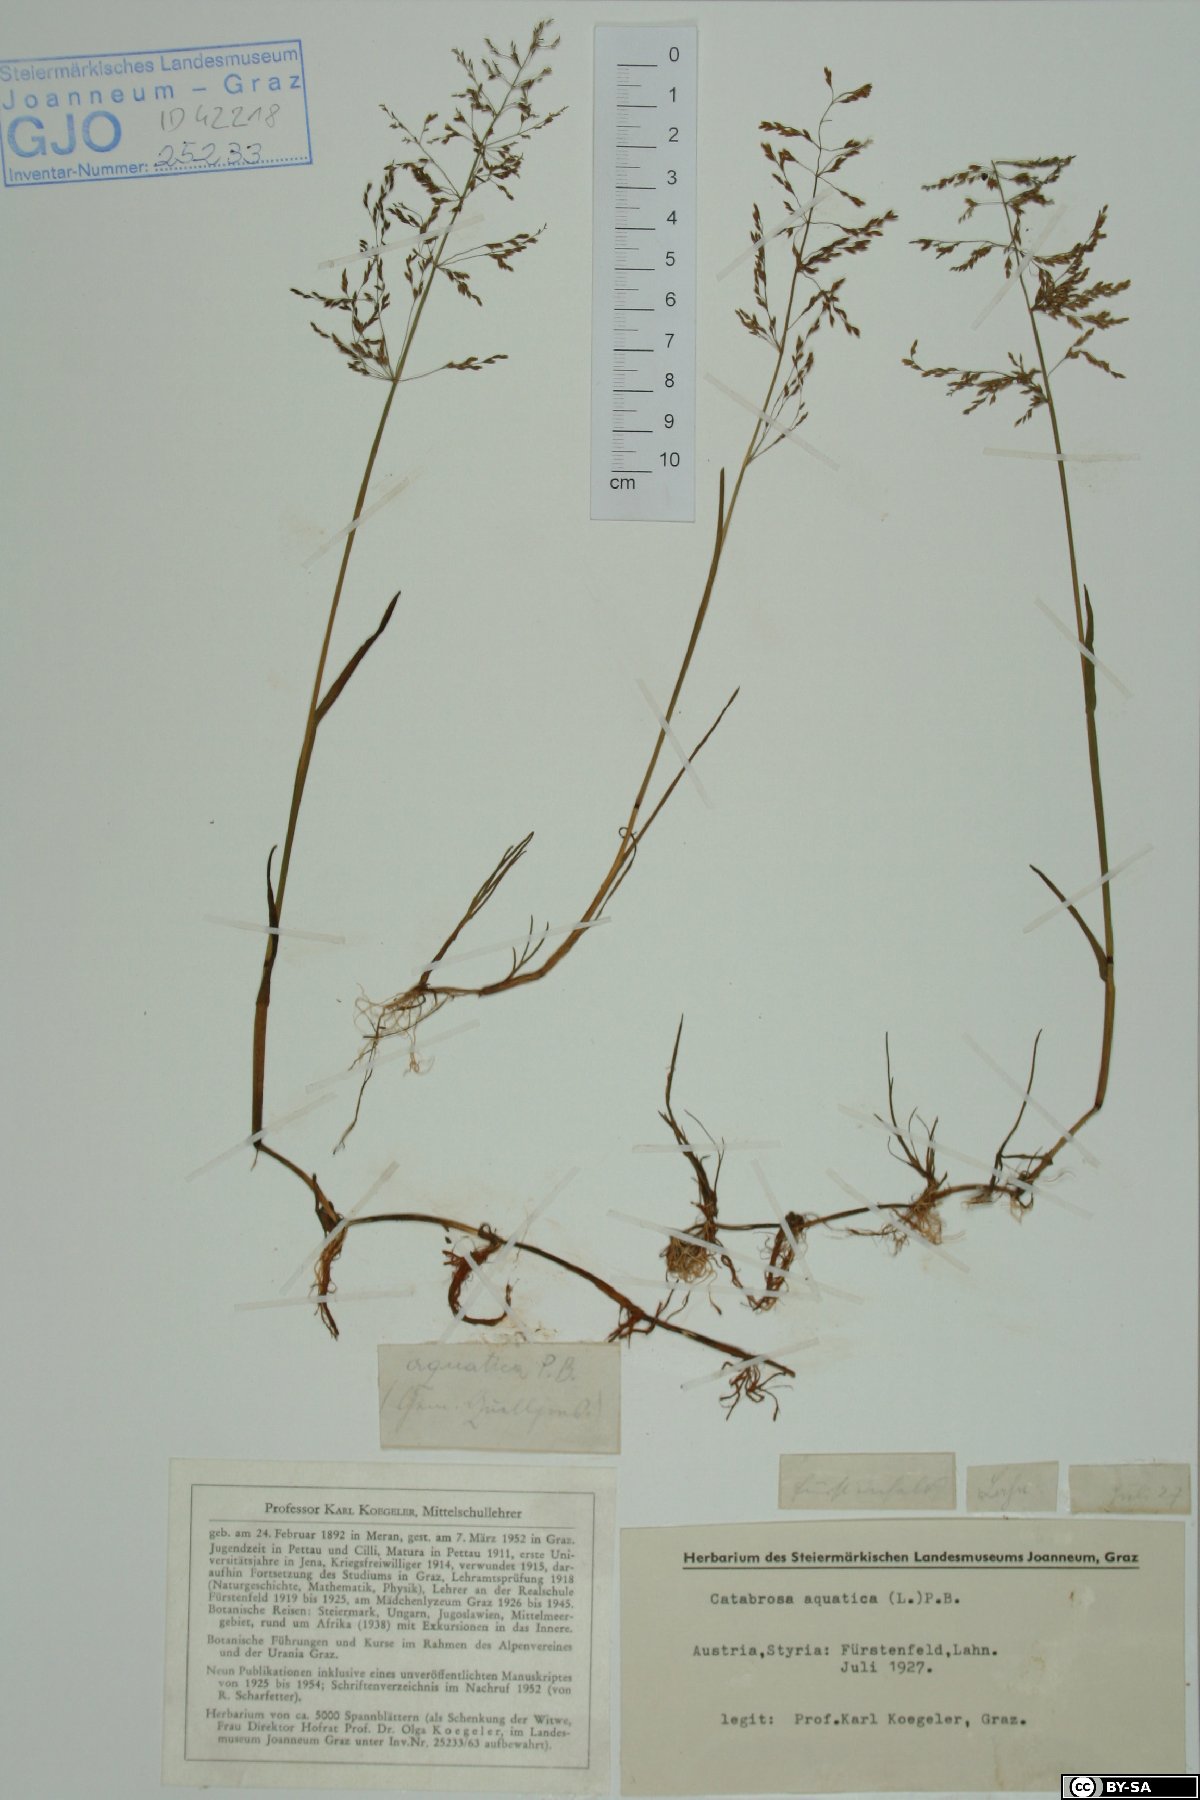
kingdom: Plantae
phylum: Tracheophyta
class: Liliopsida
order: Poales
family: Poaceae
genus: Catabrosa
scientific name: Catabrosa aquatica
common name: Whorl-grass
